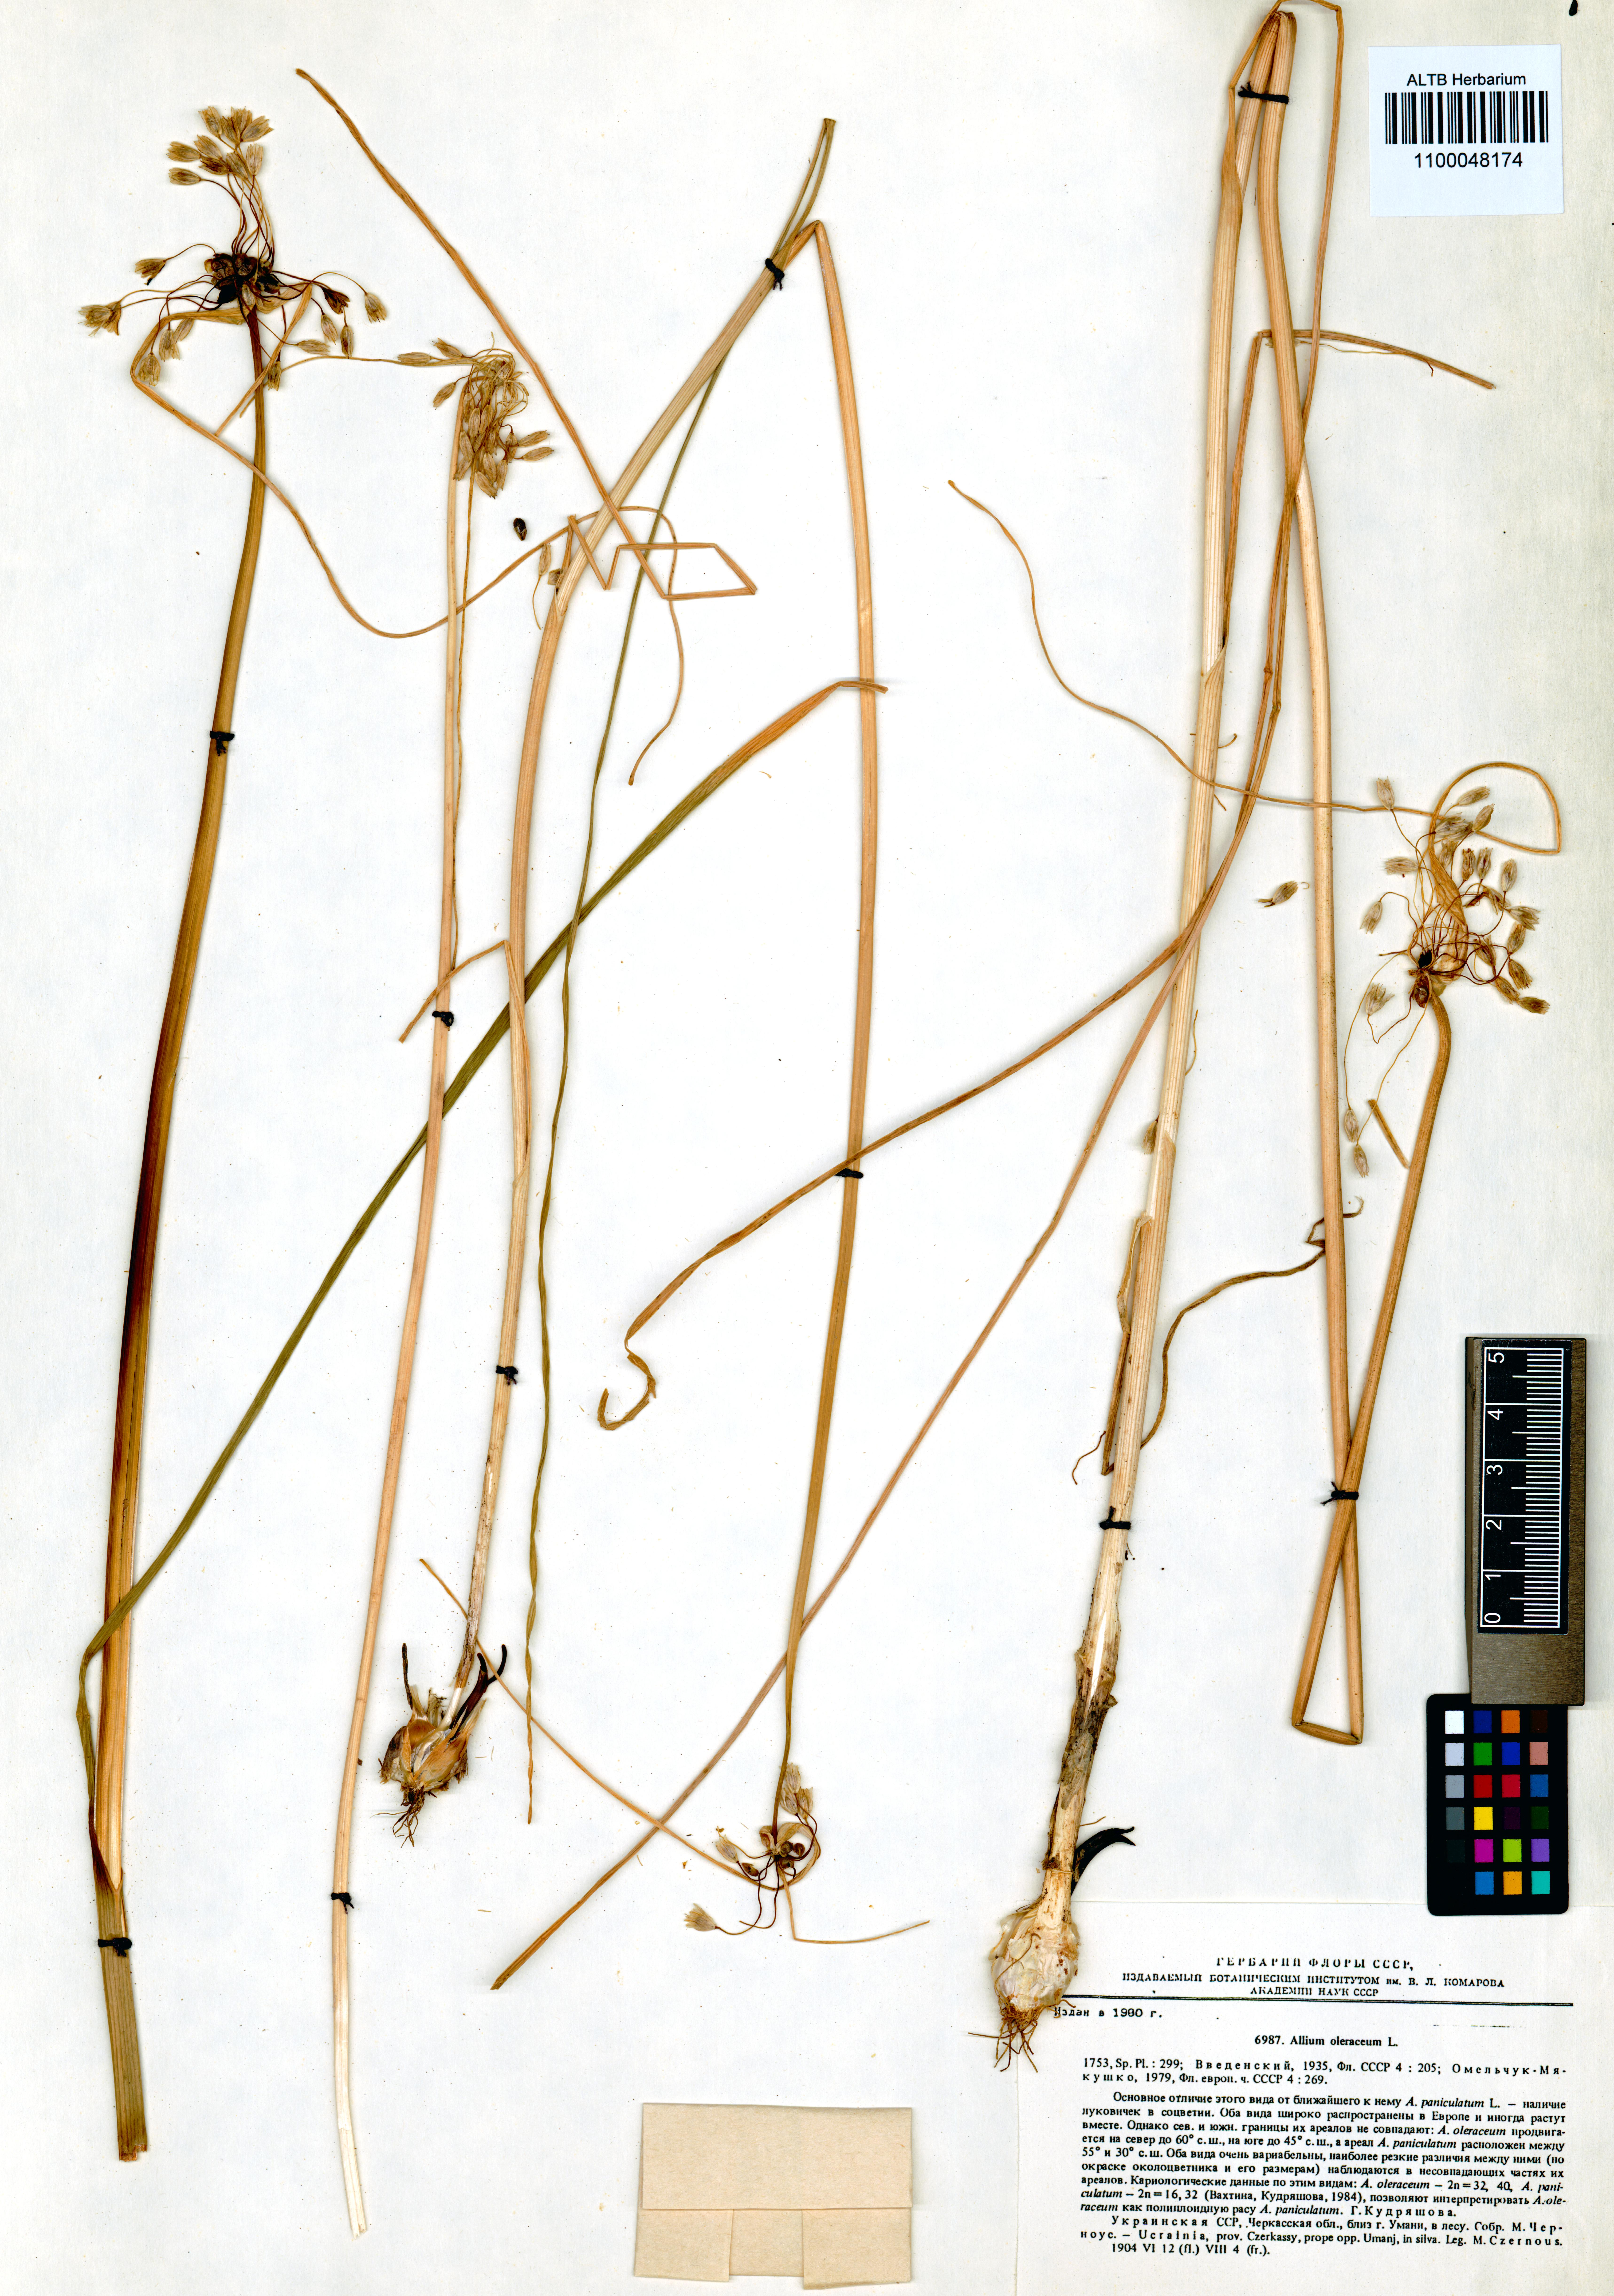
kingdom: Plantae
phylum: Tracheophyta
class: Liliopsida
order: Asparagales
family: Amaryllidaceae
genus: Allium
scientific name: Allium oleraceum
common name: Field garlic
